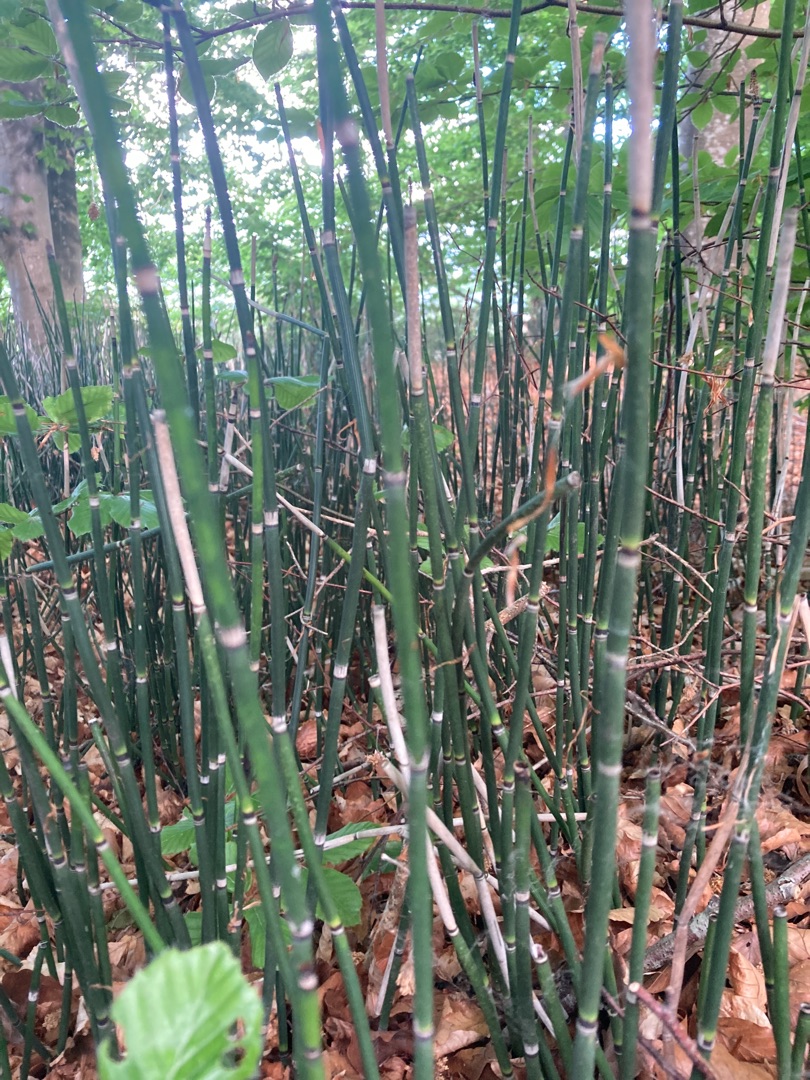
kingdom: Plantae
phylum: Tracheophyta
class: Polypodiopsida
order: Equisetales
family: Equisetaceae
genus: Equisetum
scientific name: Equisetum hyemale
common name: Skavgræs
